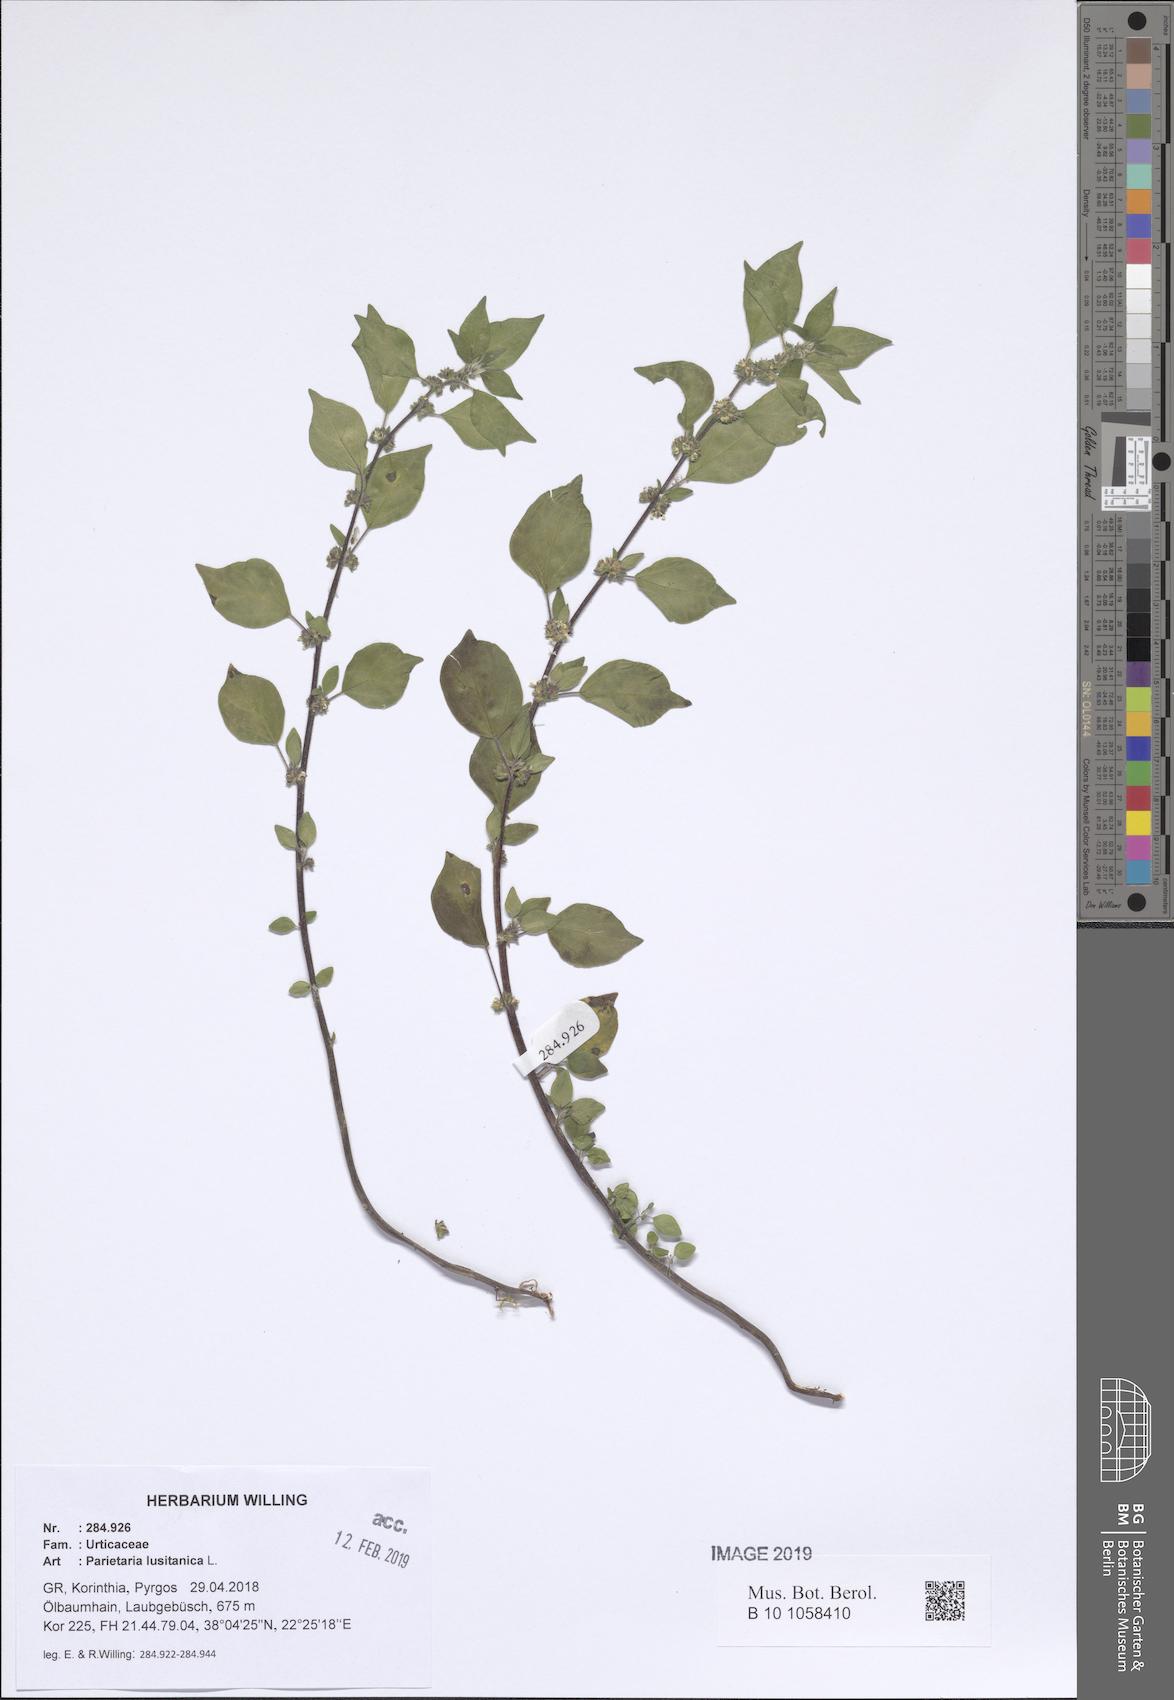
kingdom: Plantae
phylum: Tracheophyta
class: Magnoliopsida
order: Rosales
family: Urticaceae
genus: Parietaria
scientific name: Parietaria lusitanica
